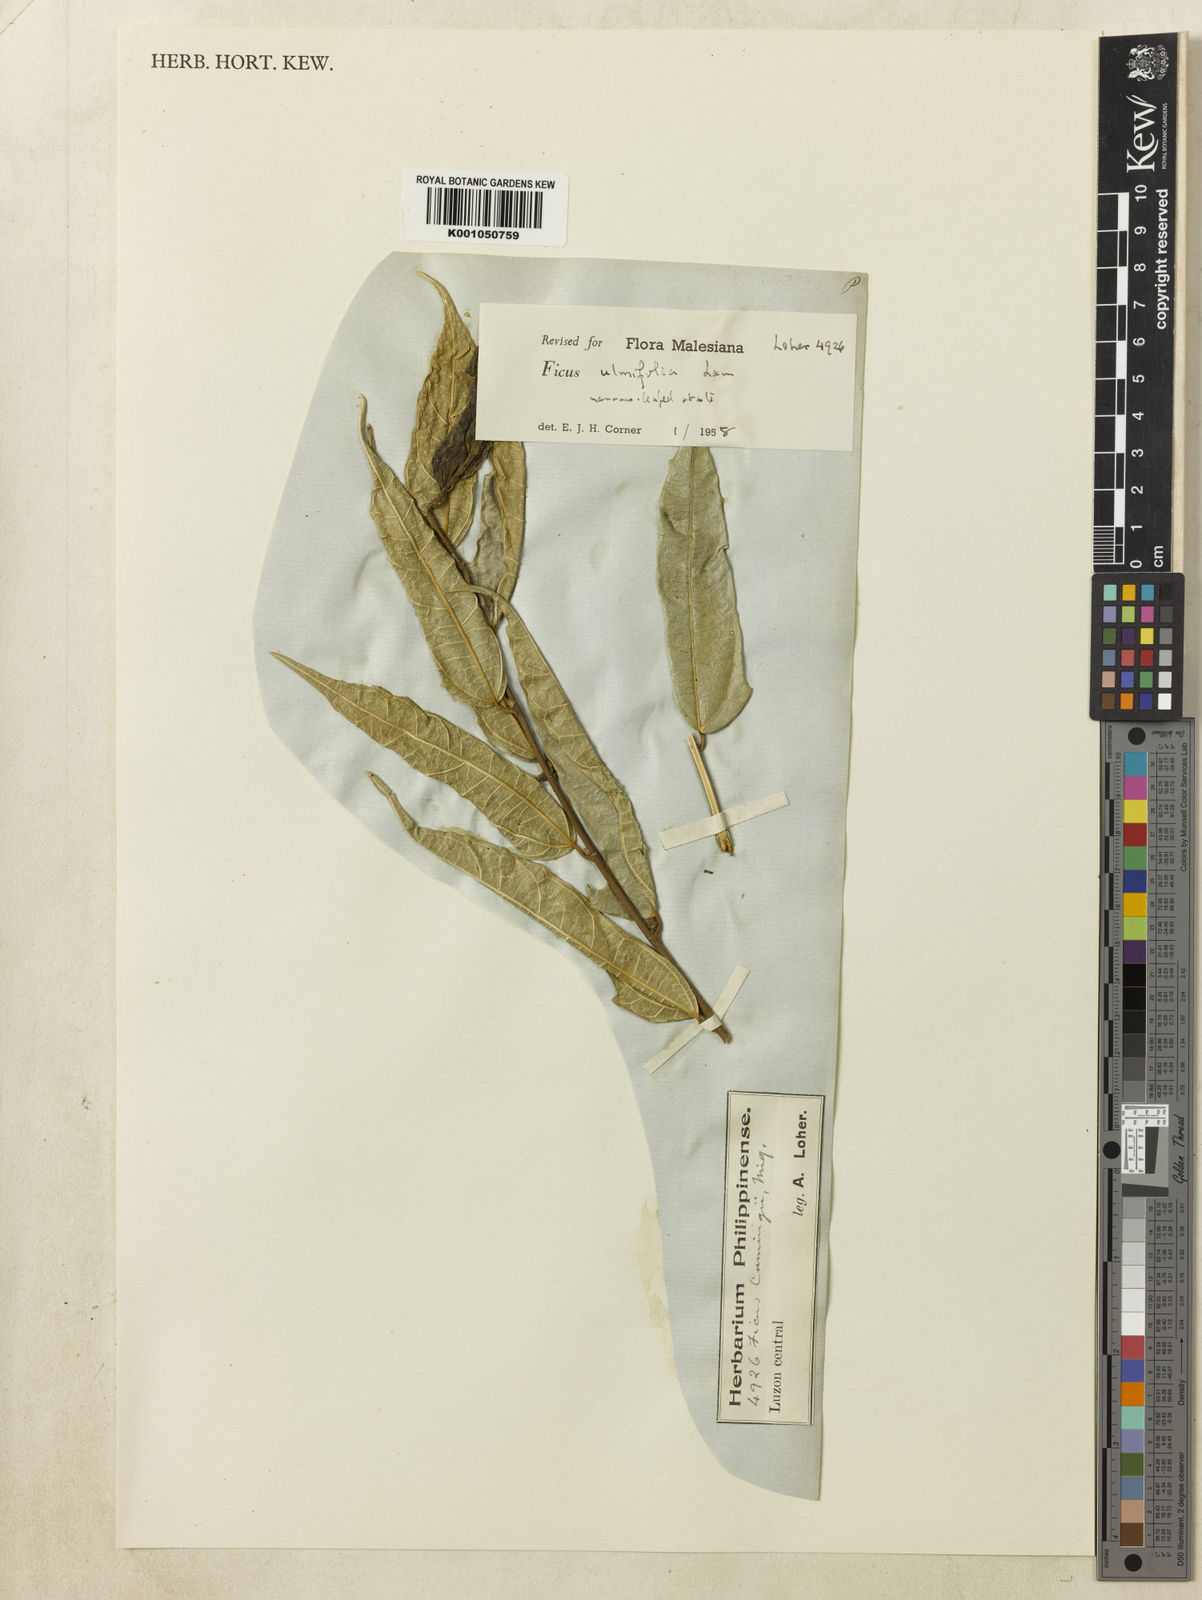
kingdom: Plantae
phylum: Tracheophyta
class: Magnoliopsida
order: Rosales
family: Moraceae
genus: Ficus
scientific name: Ficus ulmifolia
